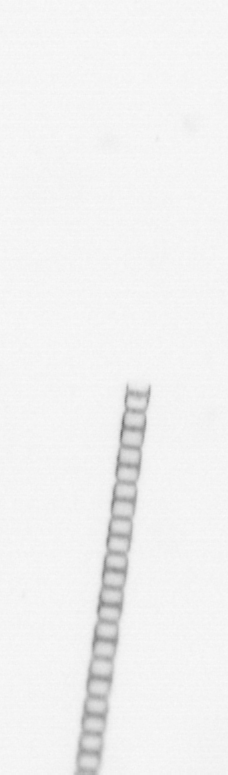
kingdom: Chromista
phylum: Ochrophyta
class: Bacillariophyceae
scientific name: Bacillariophyceae
